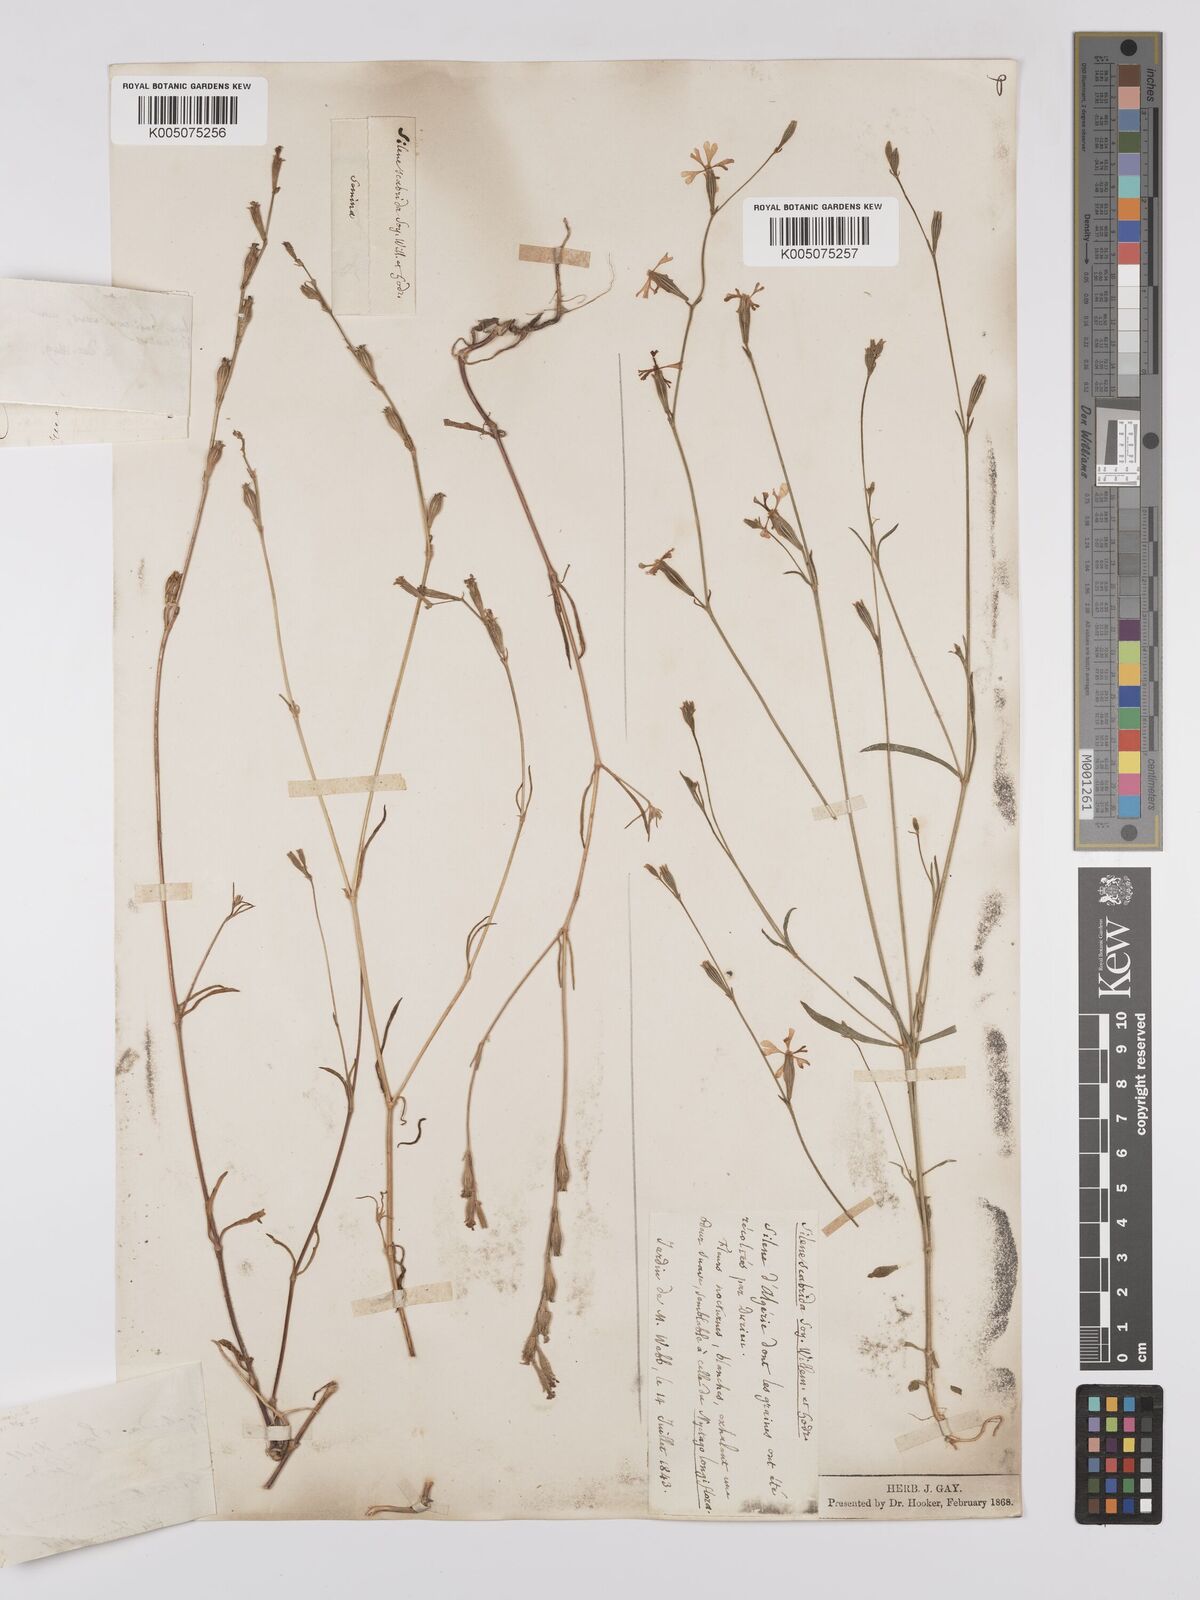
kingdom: Plantae
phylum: Tracheophyta
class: Magnoliopsida
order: Caryophyllales
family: Caryophyllaceae
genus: Silene
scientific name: Silene scabrida
